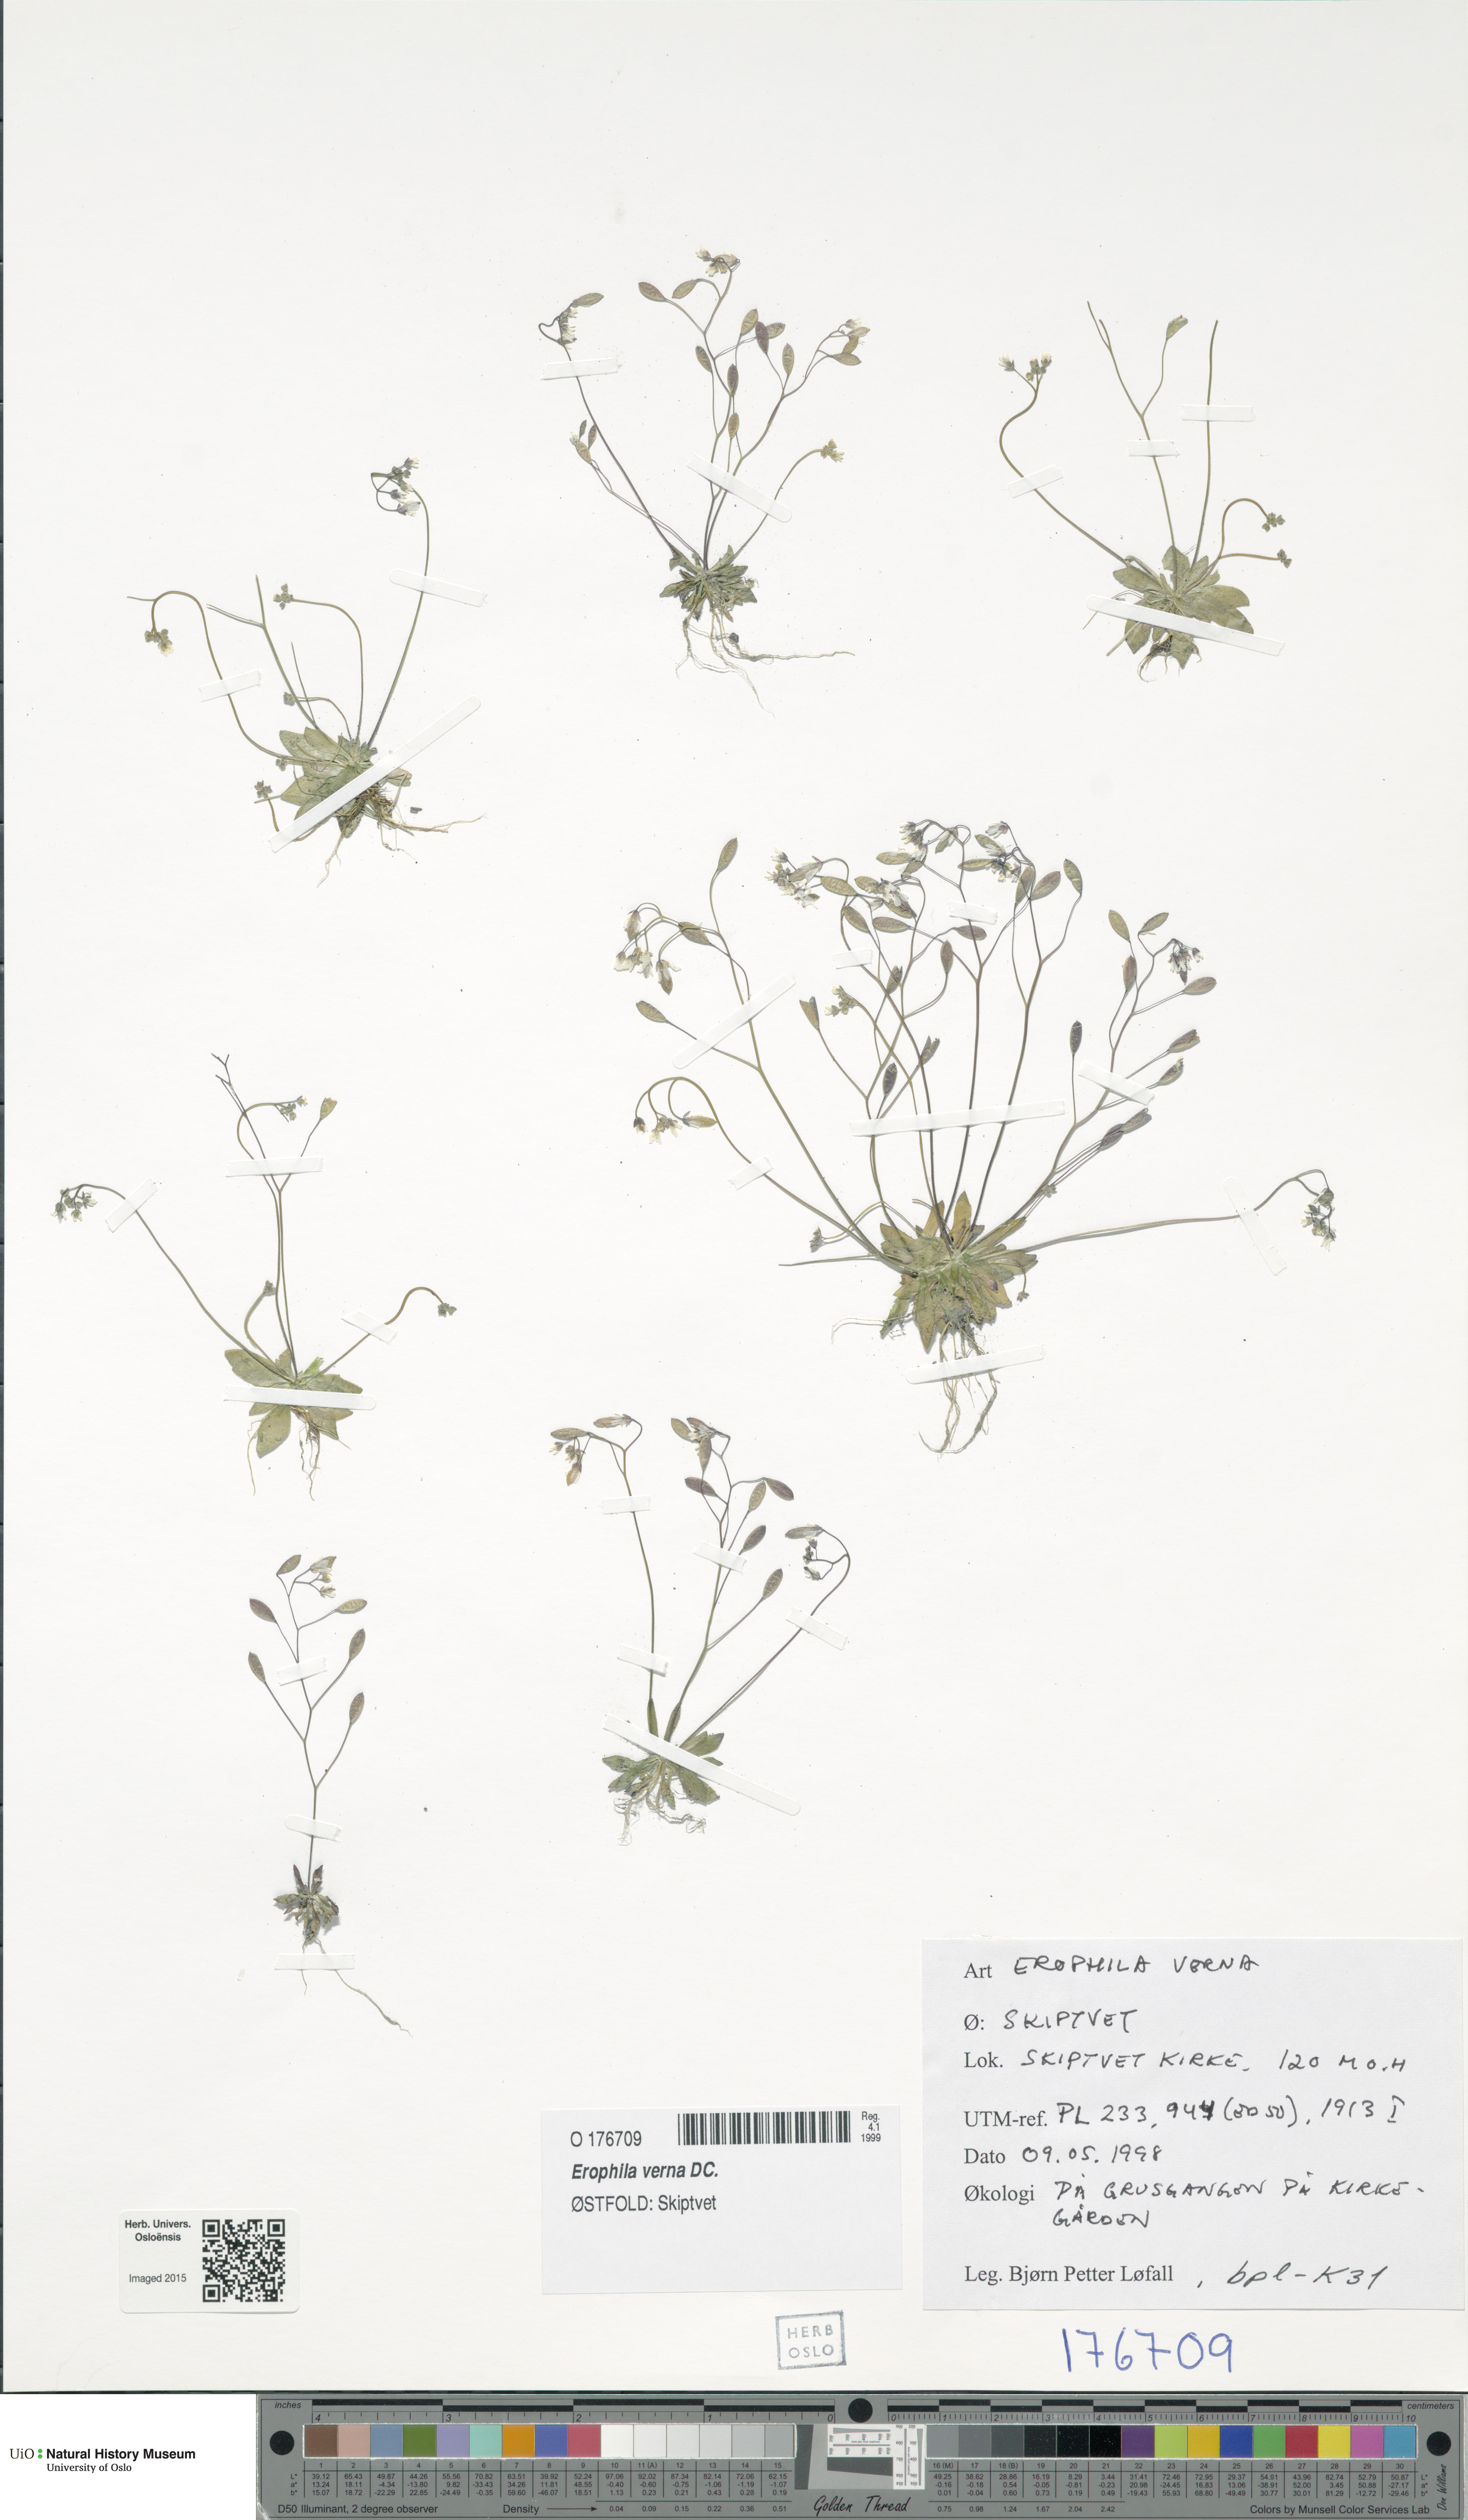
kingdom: Plantae
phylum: Tracheophyta
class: Magnoliopsida
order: Brassicales
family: Brassicaceae
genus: Draba
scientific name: Draba verna
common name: Spring draba
